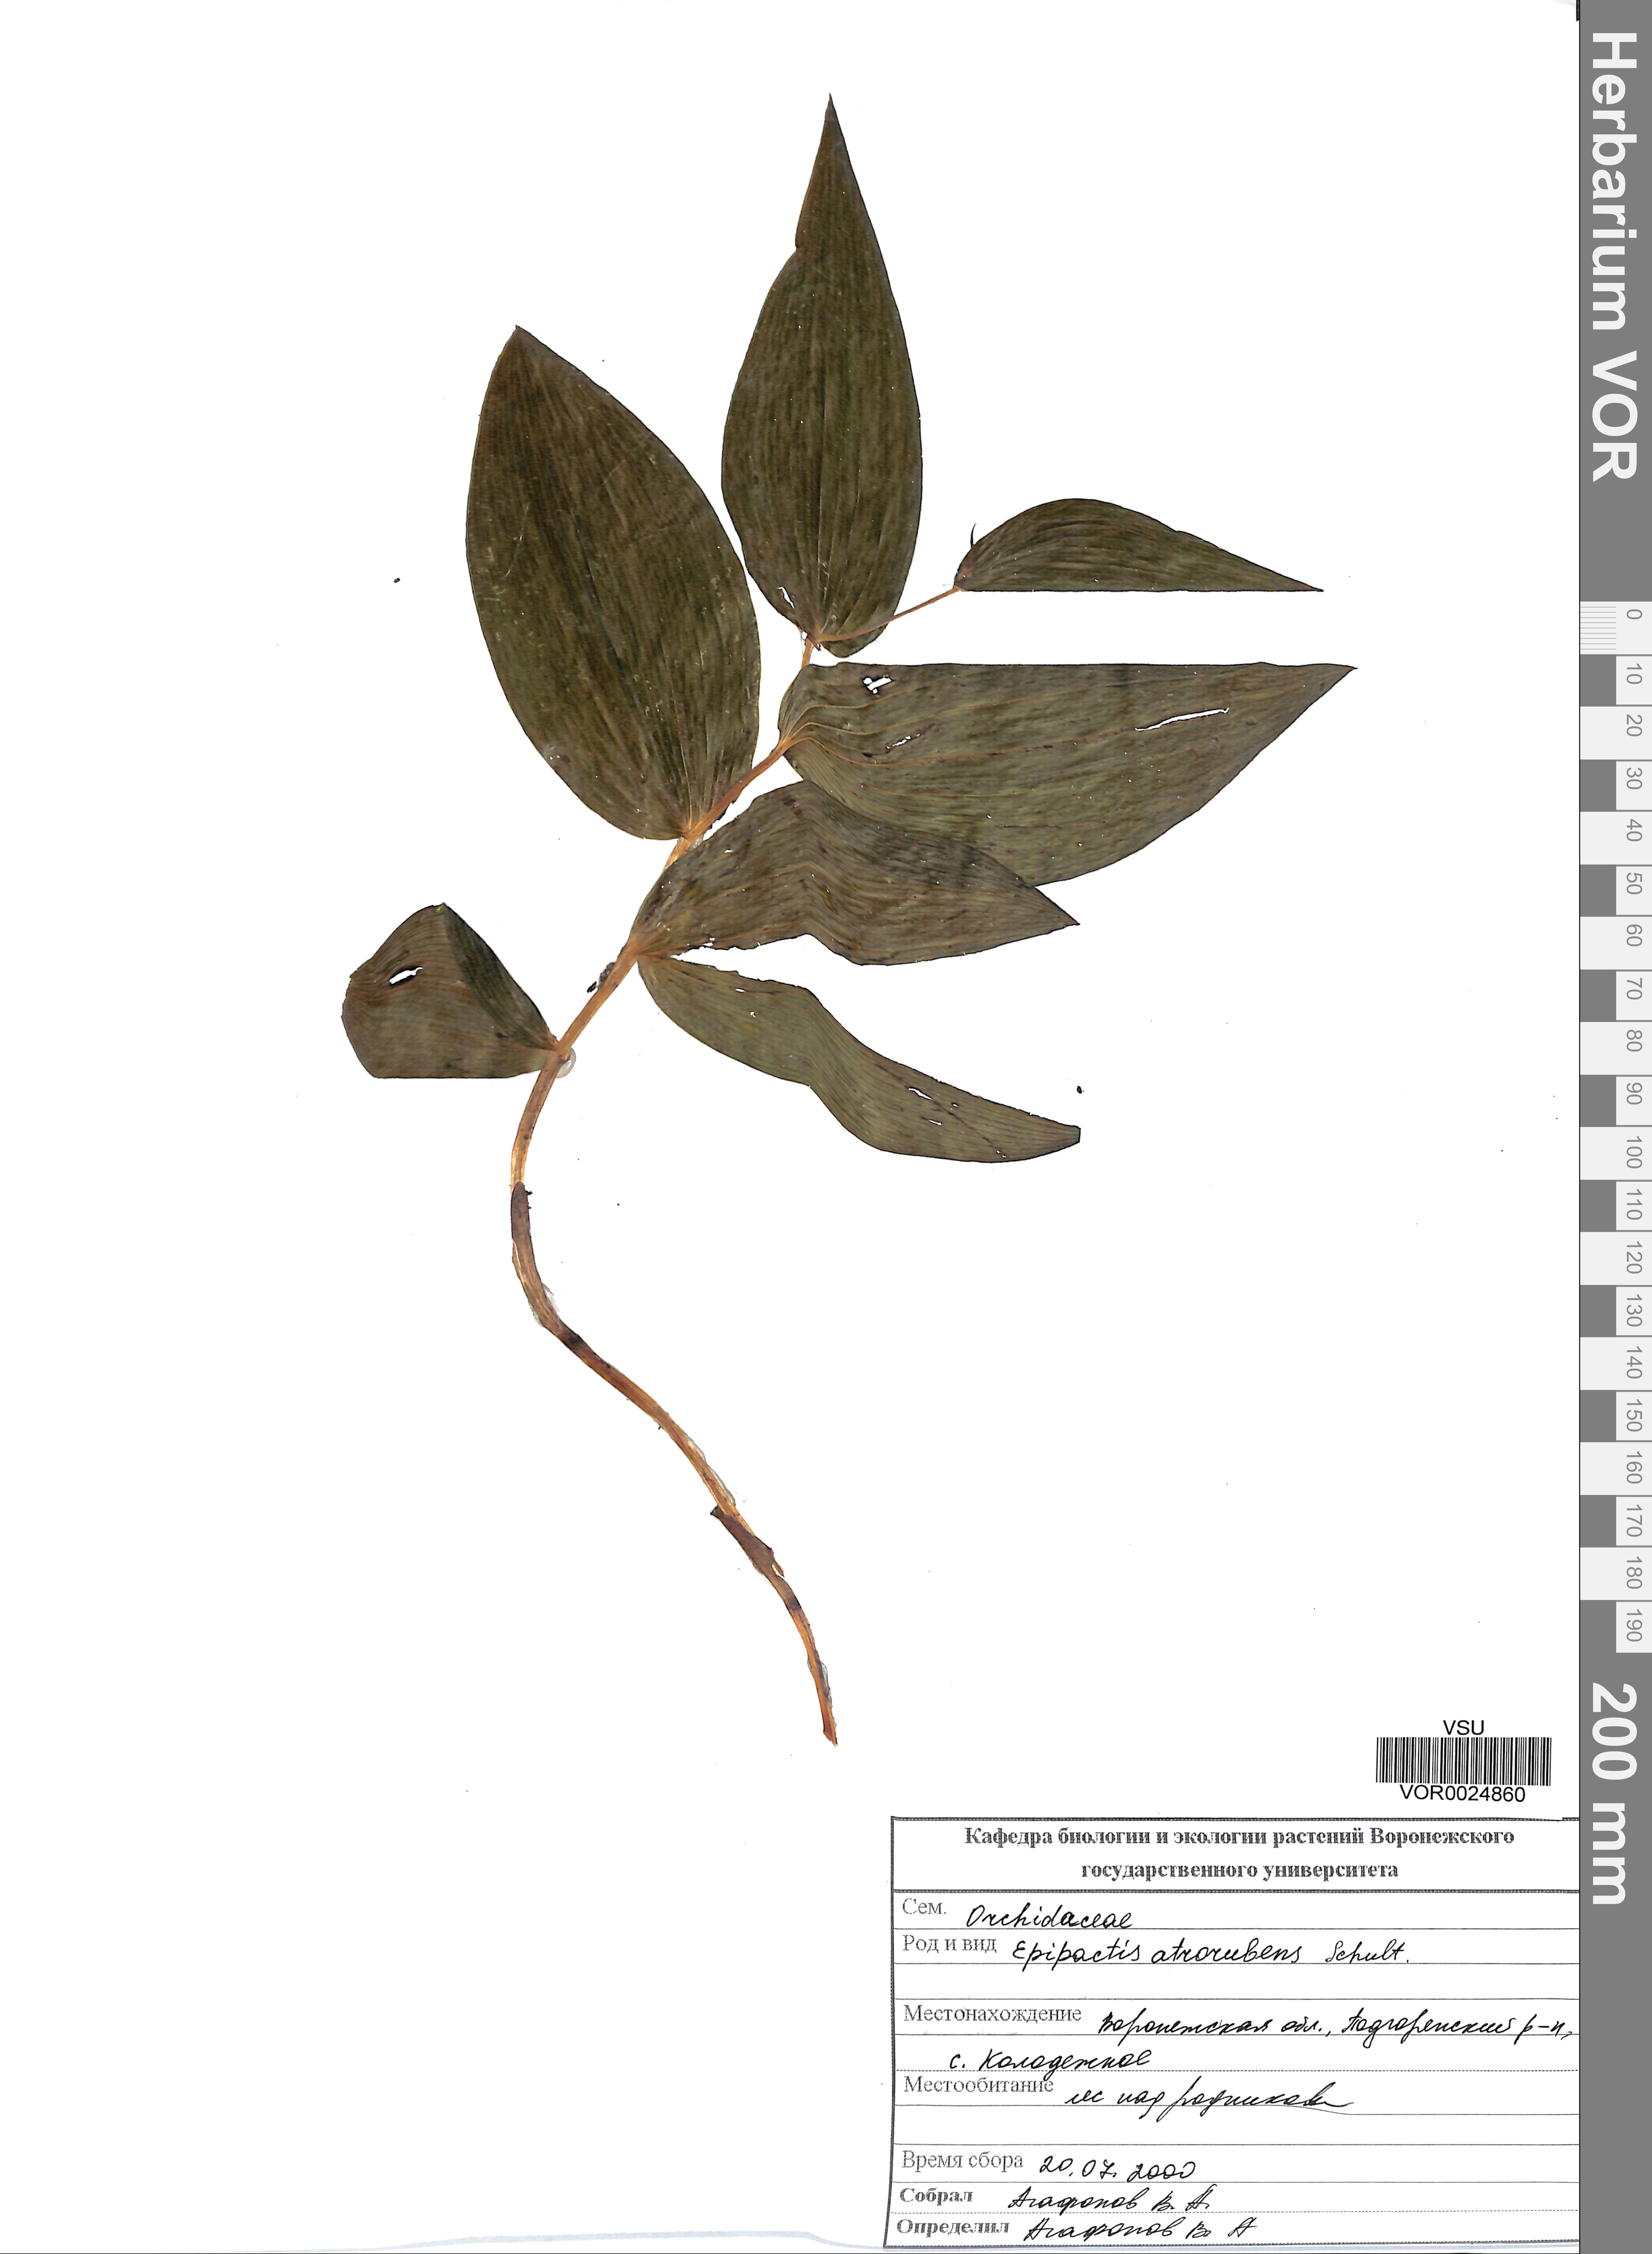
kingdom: Plantae
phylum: Tracheophyta
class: Liliopsida
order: Asparagales
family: Orchidaceae
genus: Epipactis
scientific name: Epipactis helleborine
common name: Broad-leaved helleborine
